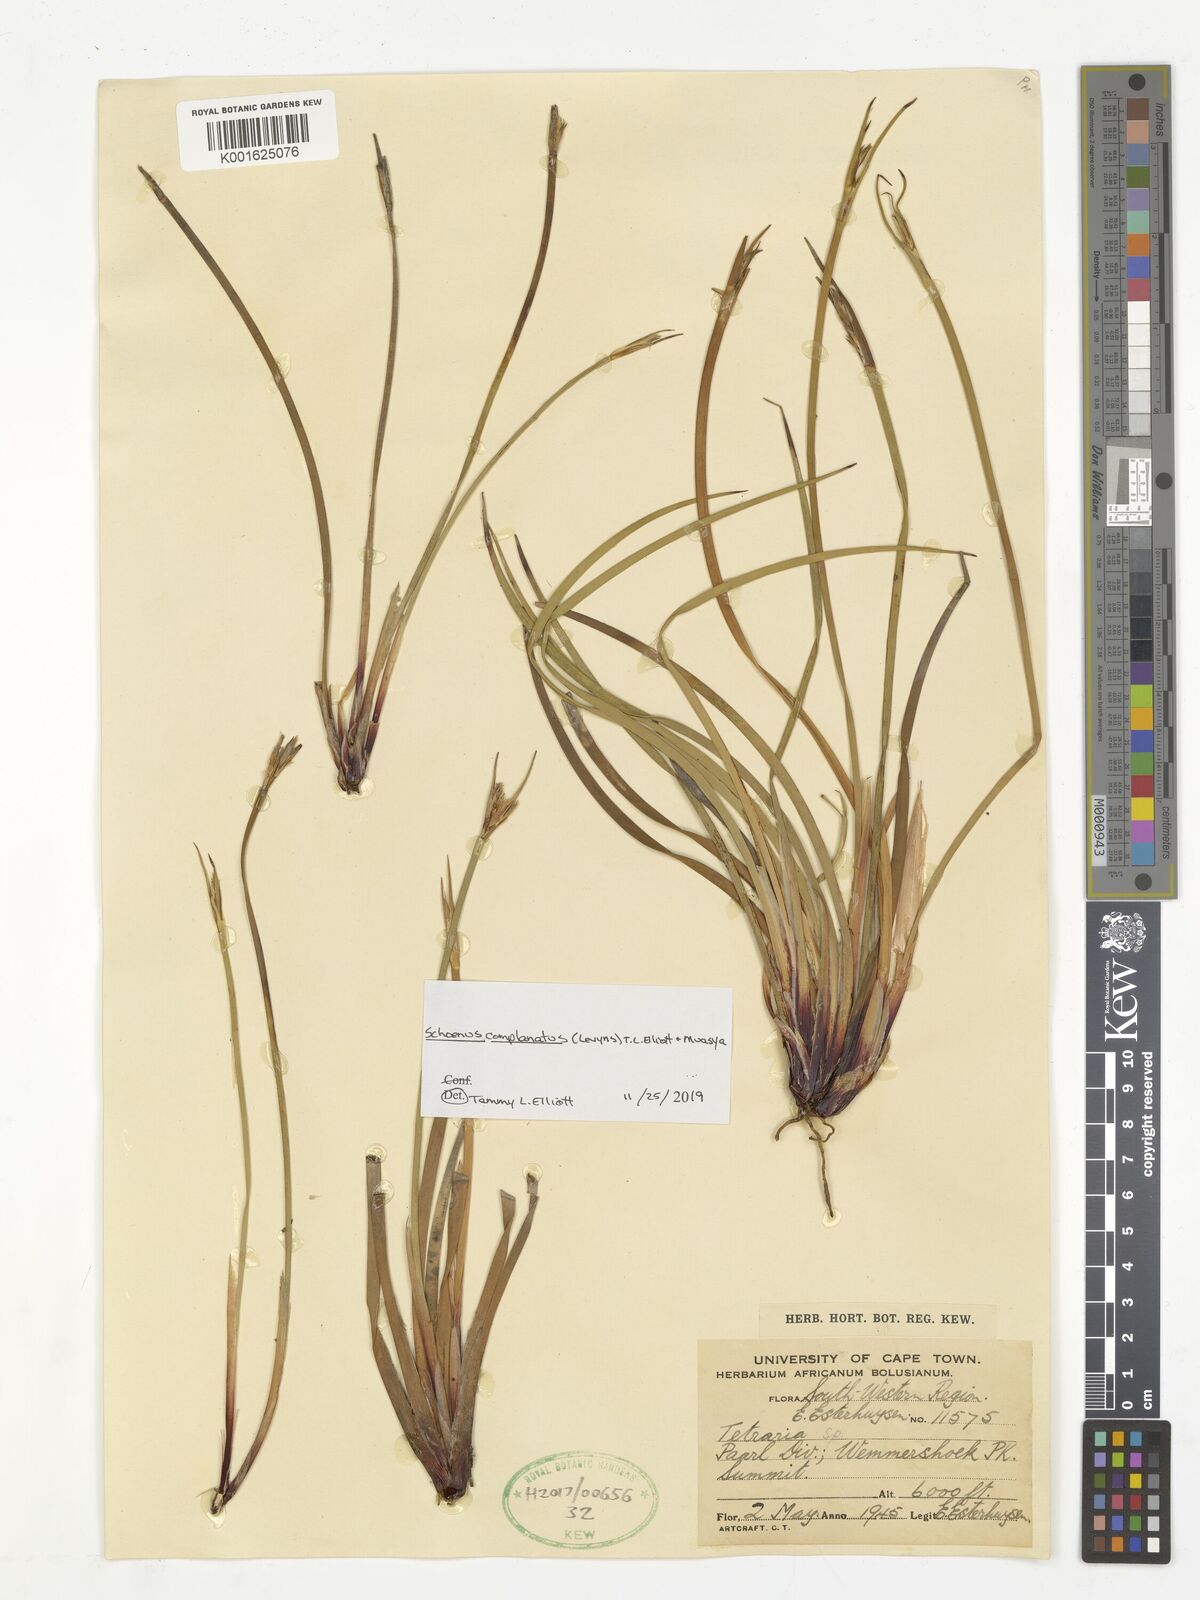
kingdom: Plantae
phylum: Tracheophyta
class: Liliopsida
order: Poales
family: Cyperaceae
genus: Schoenus
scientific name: Schoenus compactus
